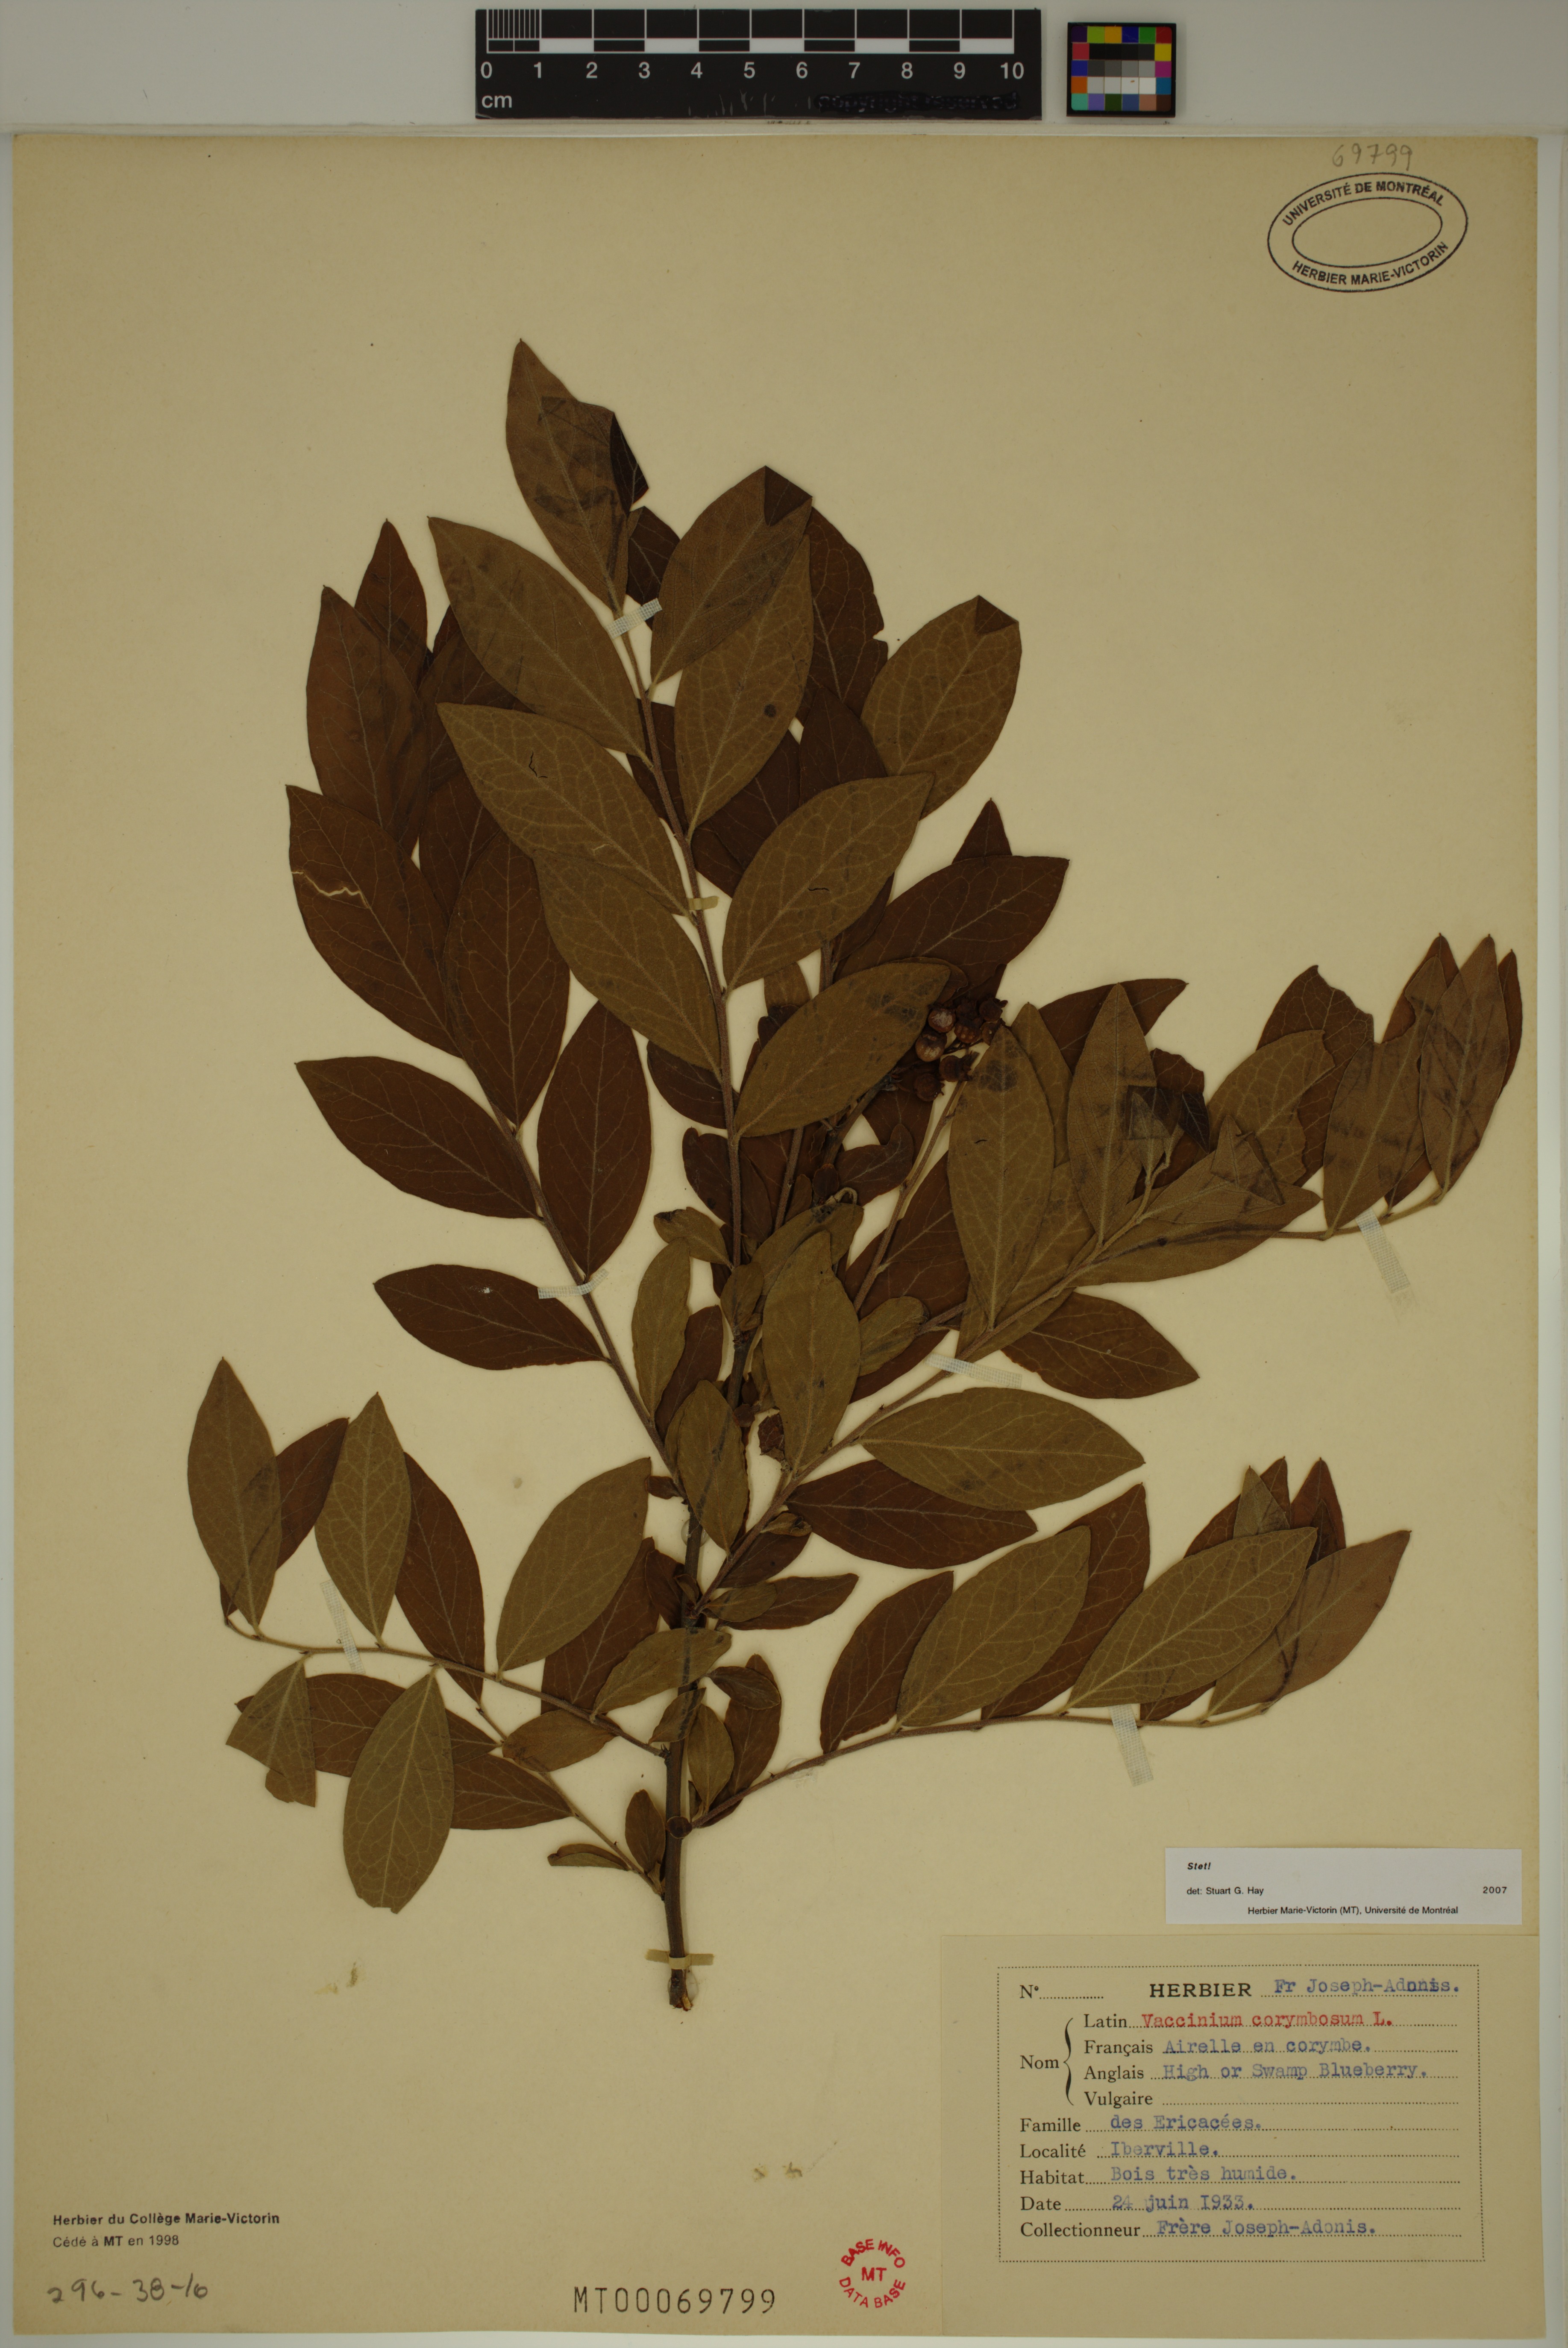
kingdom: Plantae
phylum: Tracheophyta
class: Magnoliopsida
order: Ericales
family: Ericaceae
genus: Vaccinium
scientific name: Vaccinium corymbosum
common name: Blueberry
